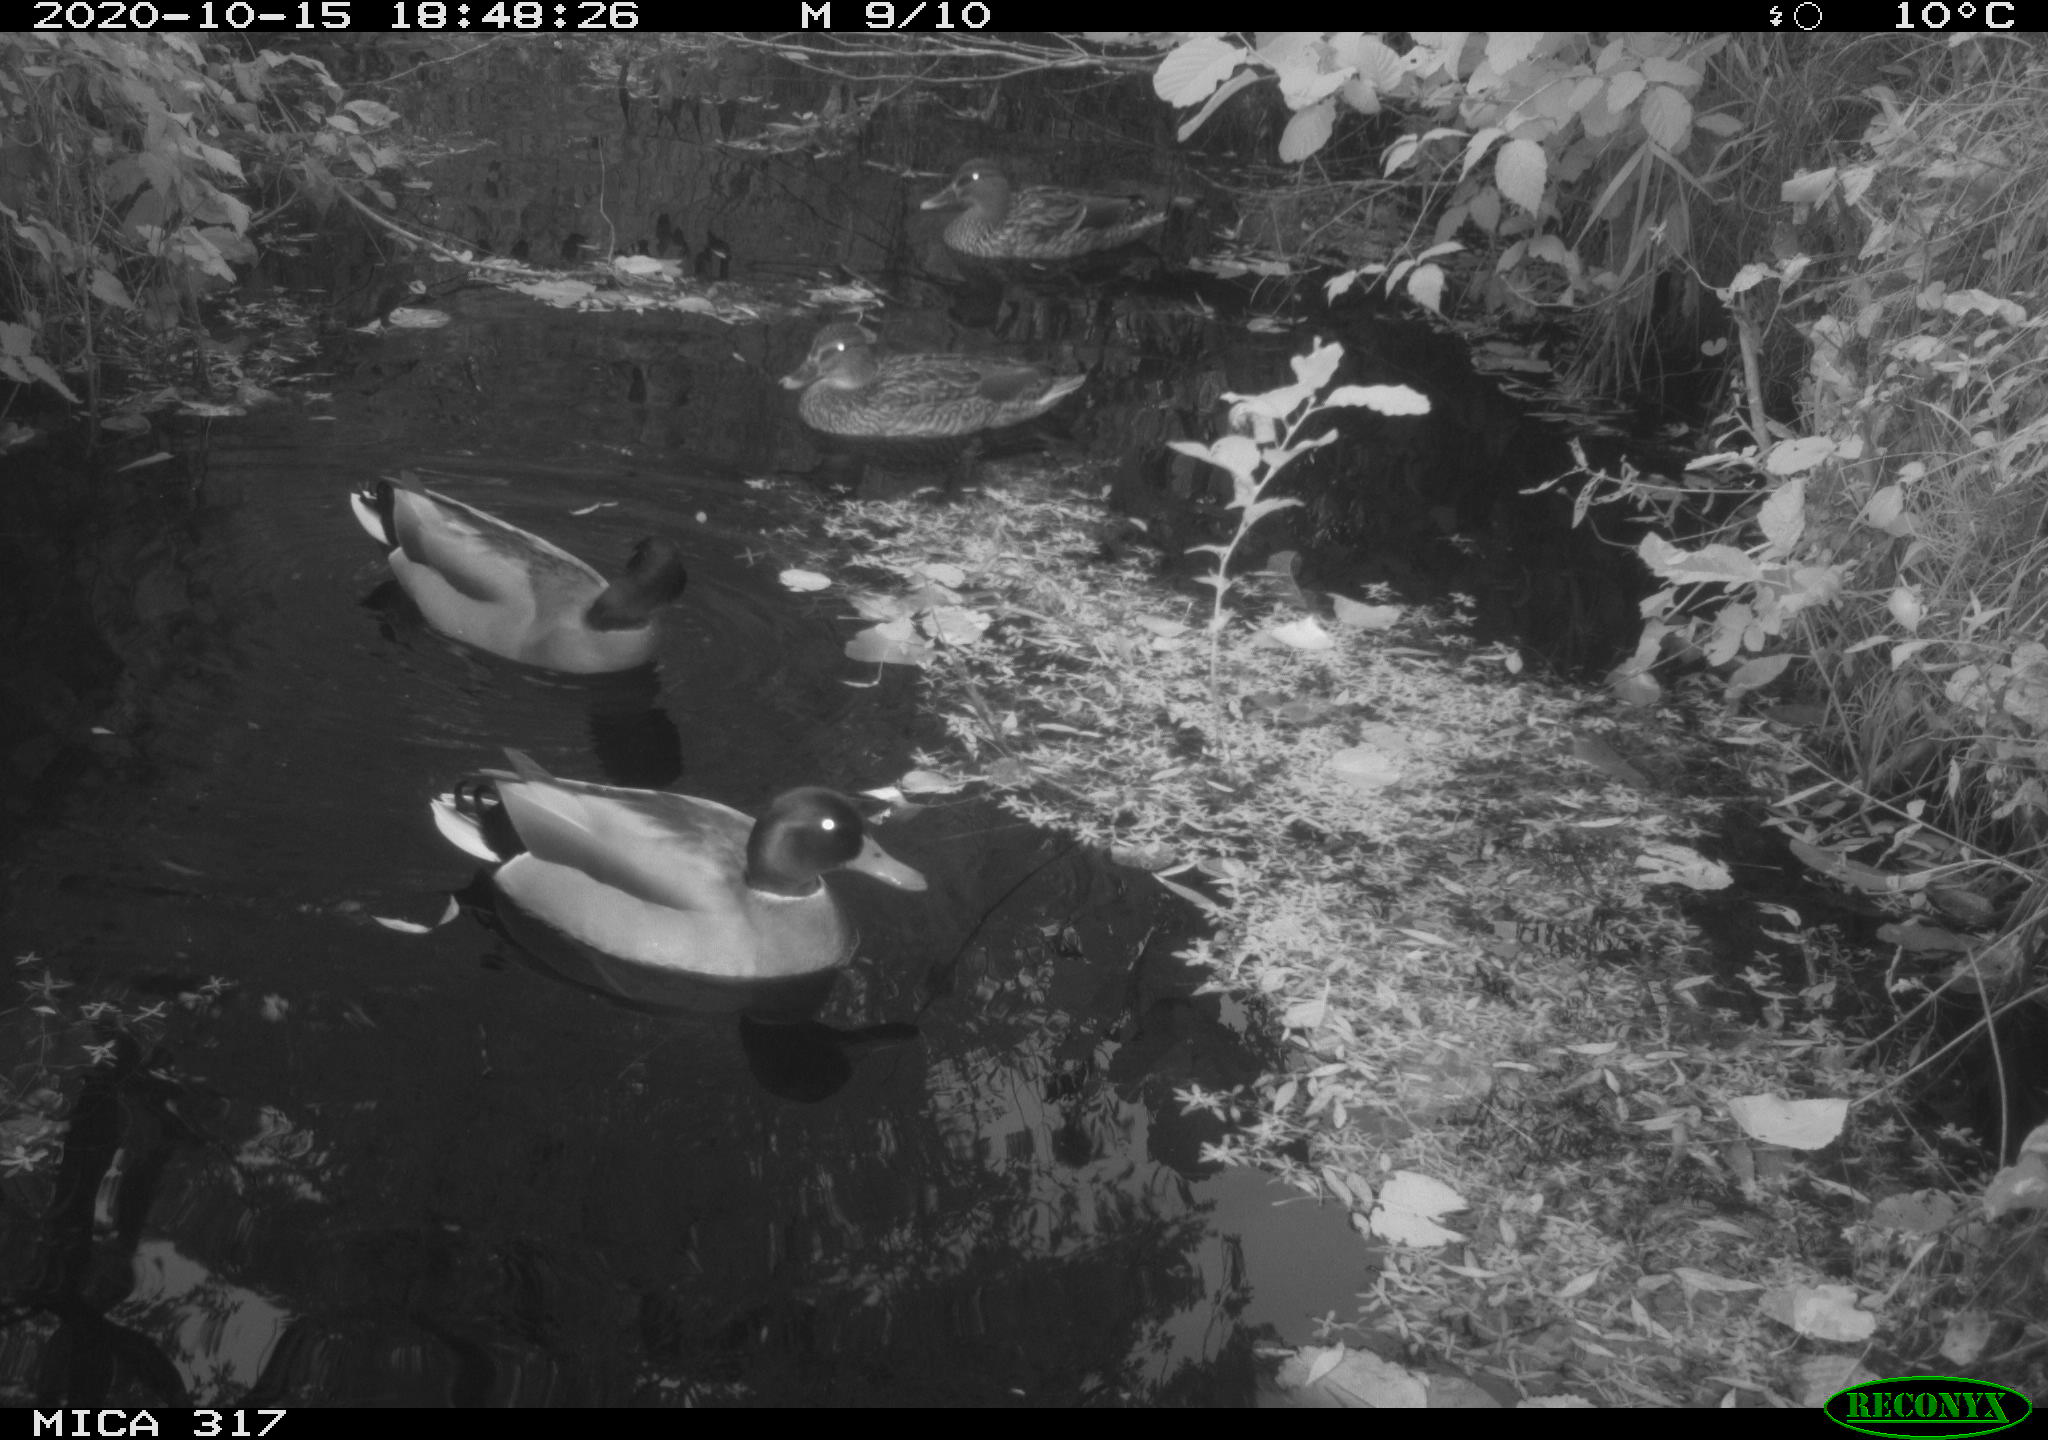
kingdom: Animalia
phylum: Chordata
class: Aves
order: Anseriformes
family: Anatidae
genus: Anas
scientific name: Anas platyrhynchos
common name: Mallard
